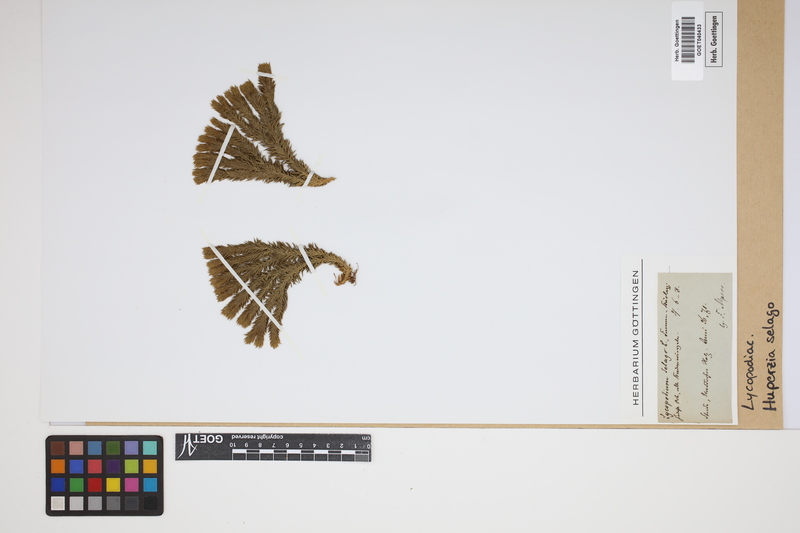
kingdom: Plantae
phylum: Tracheophyta
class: Lycopodiopsida
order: Lycopodiales
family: Lycopodiaceae
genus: Huperzia
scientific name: Huperzia selago
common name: Northern firmoss
